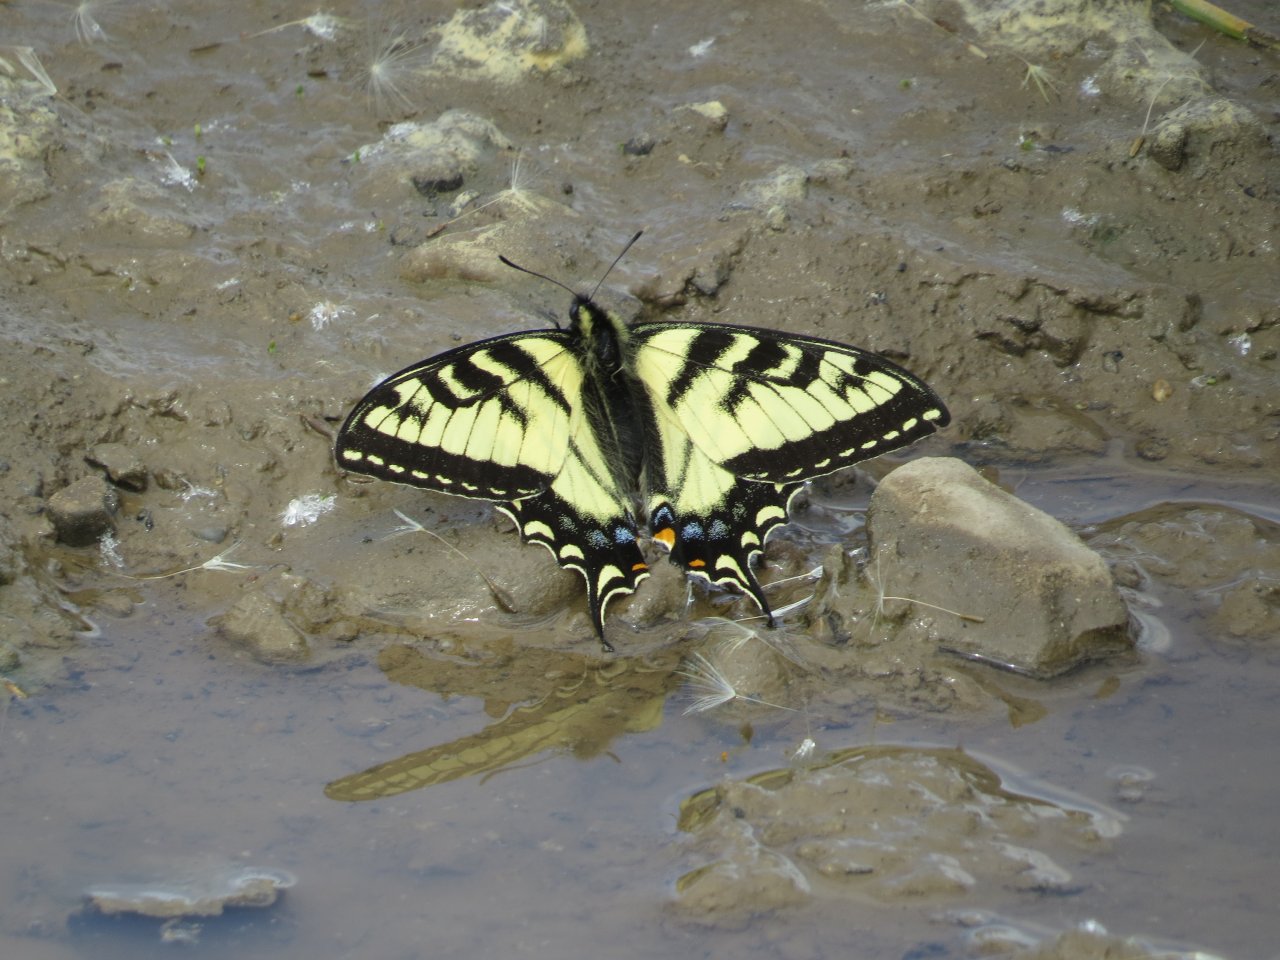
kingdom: Animalia
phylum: Arthropoda
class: Insecta
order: Lepidoptera
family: Papilionidae
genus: Pterourus
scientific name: Pterourus canadensis
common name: Canadian Tiger Swallowtail
